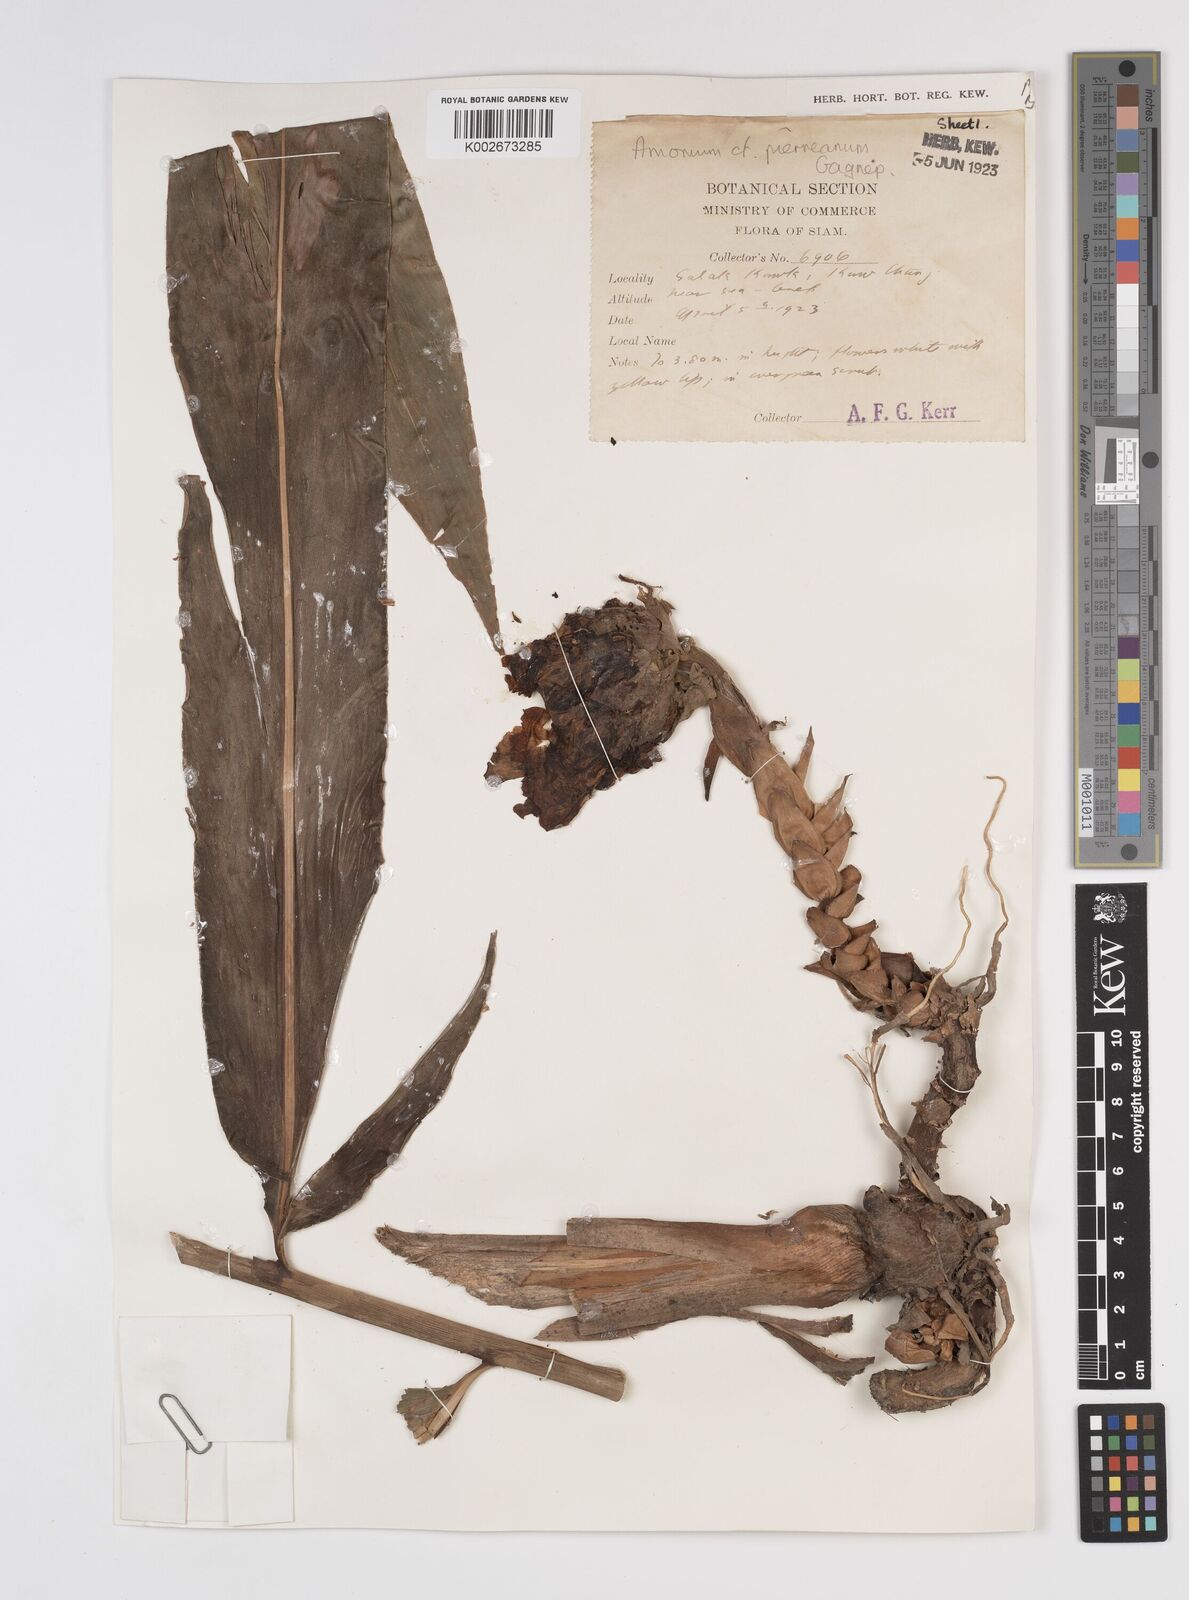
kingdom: Plantae
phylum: Tracheophyta
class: Liliopsida
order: Zingiberales
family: Zingiberaceae
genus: Amomum
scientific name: Amomum
